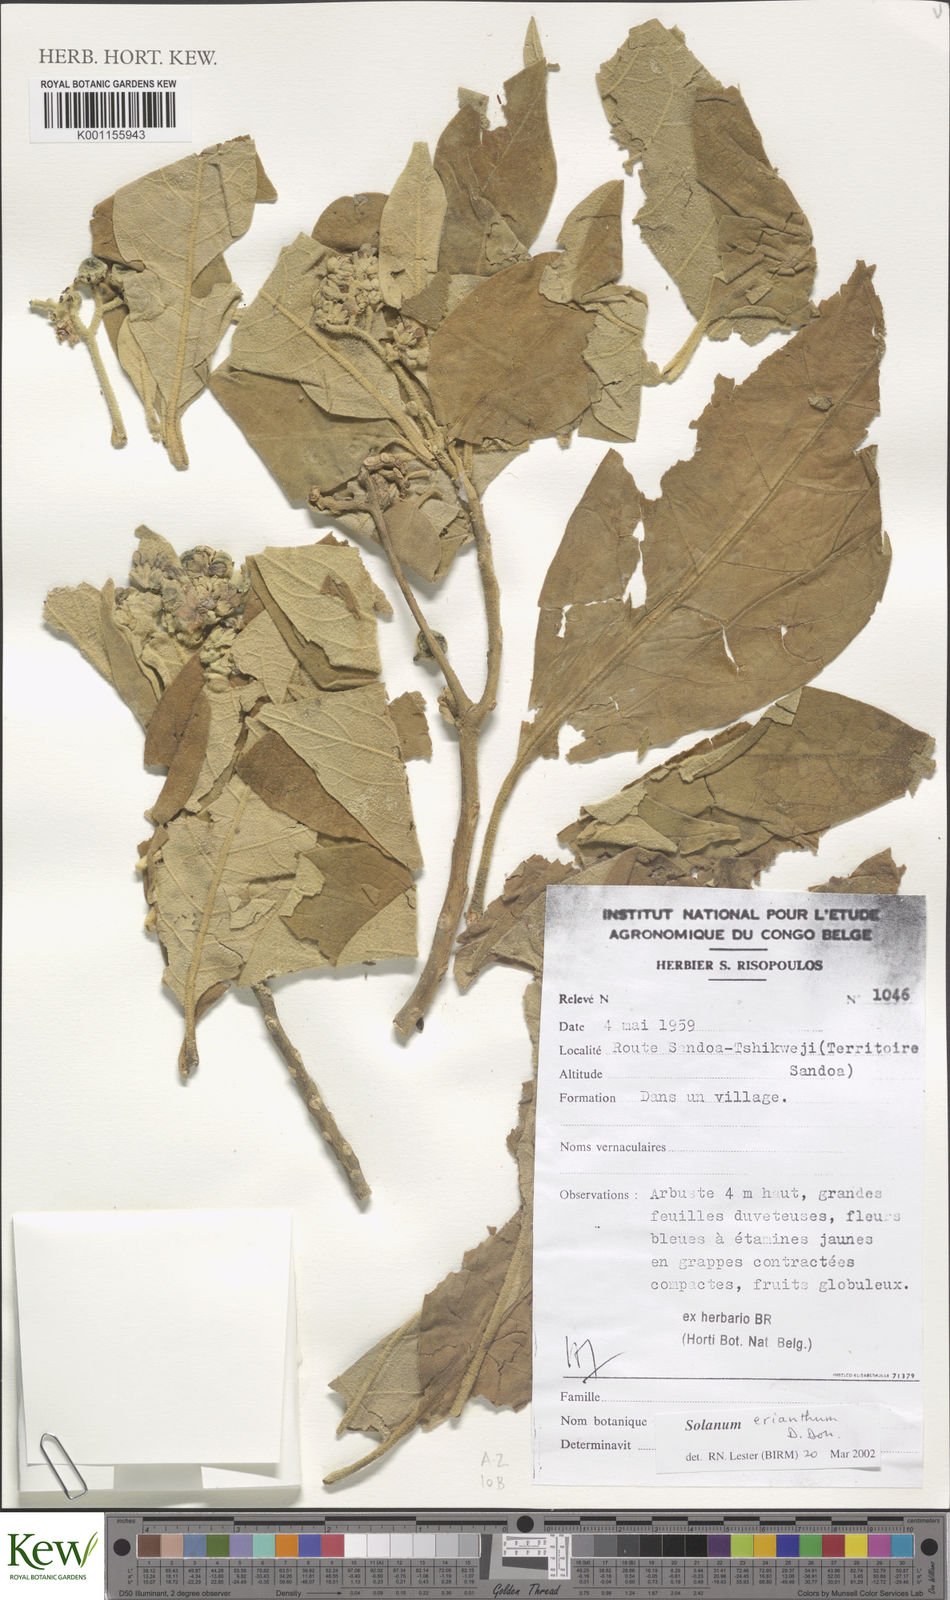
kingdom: Plantae
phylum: Tracheophyta
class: Magnoliopsida
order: Solanales
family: Solanaceae
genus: Solanum
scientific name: Solanum erianthum
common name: Tobacco-tree
